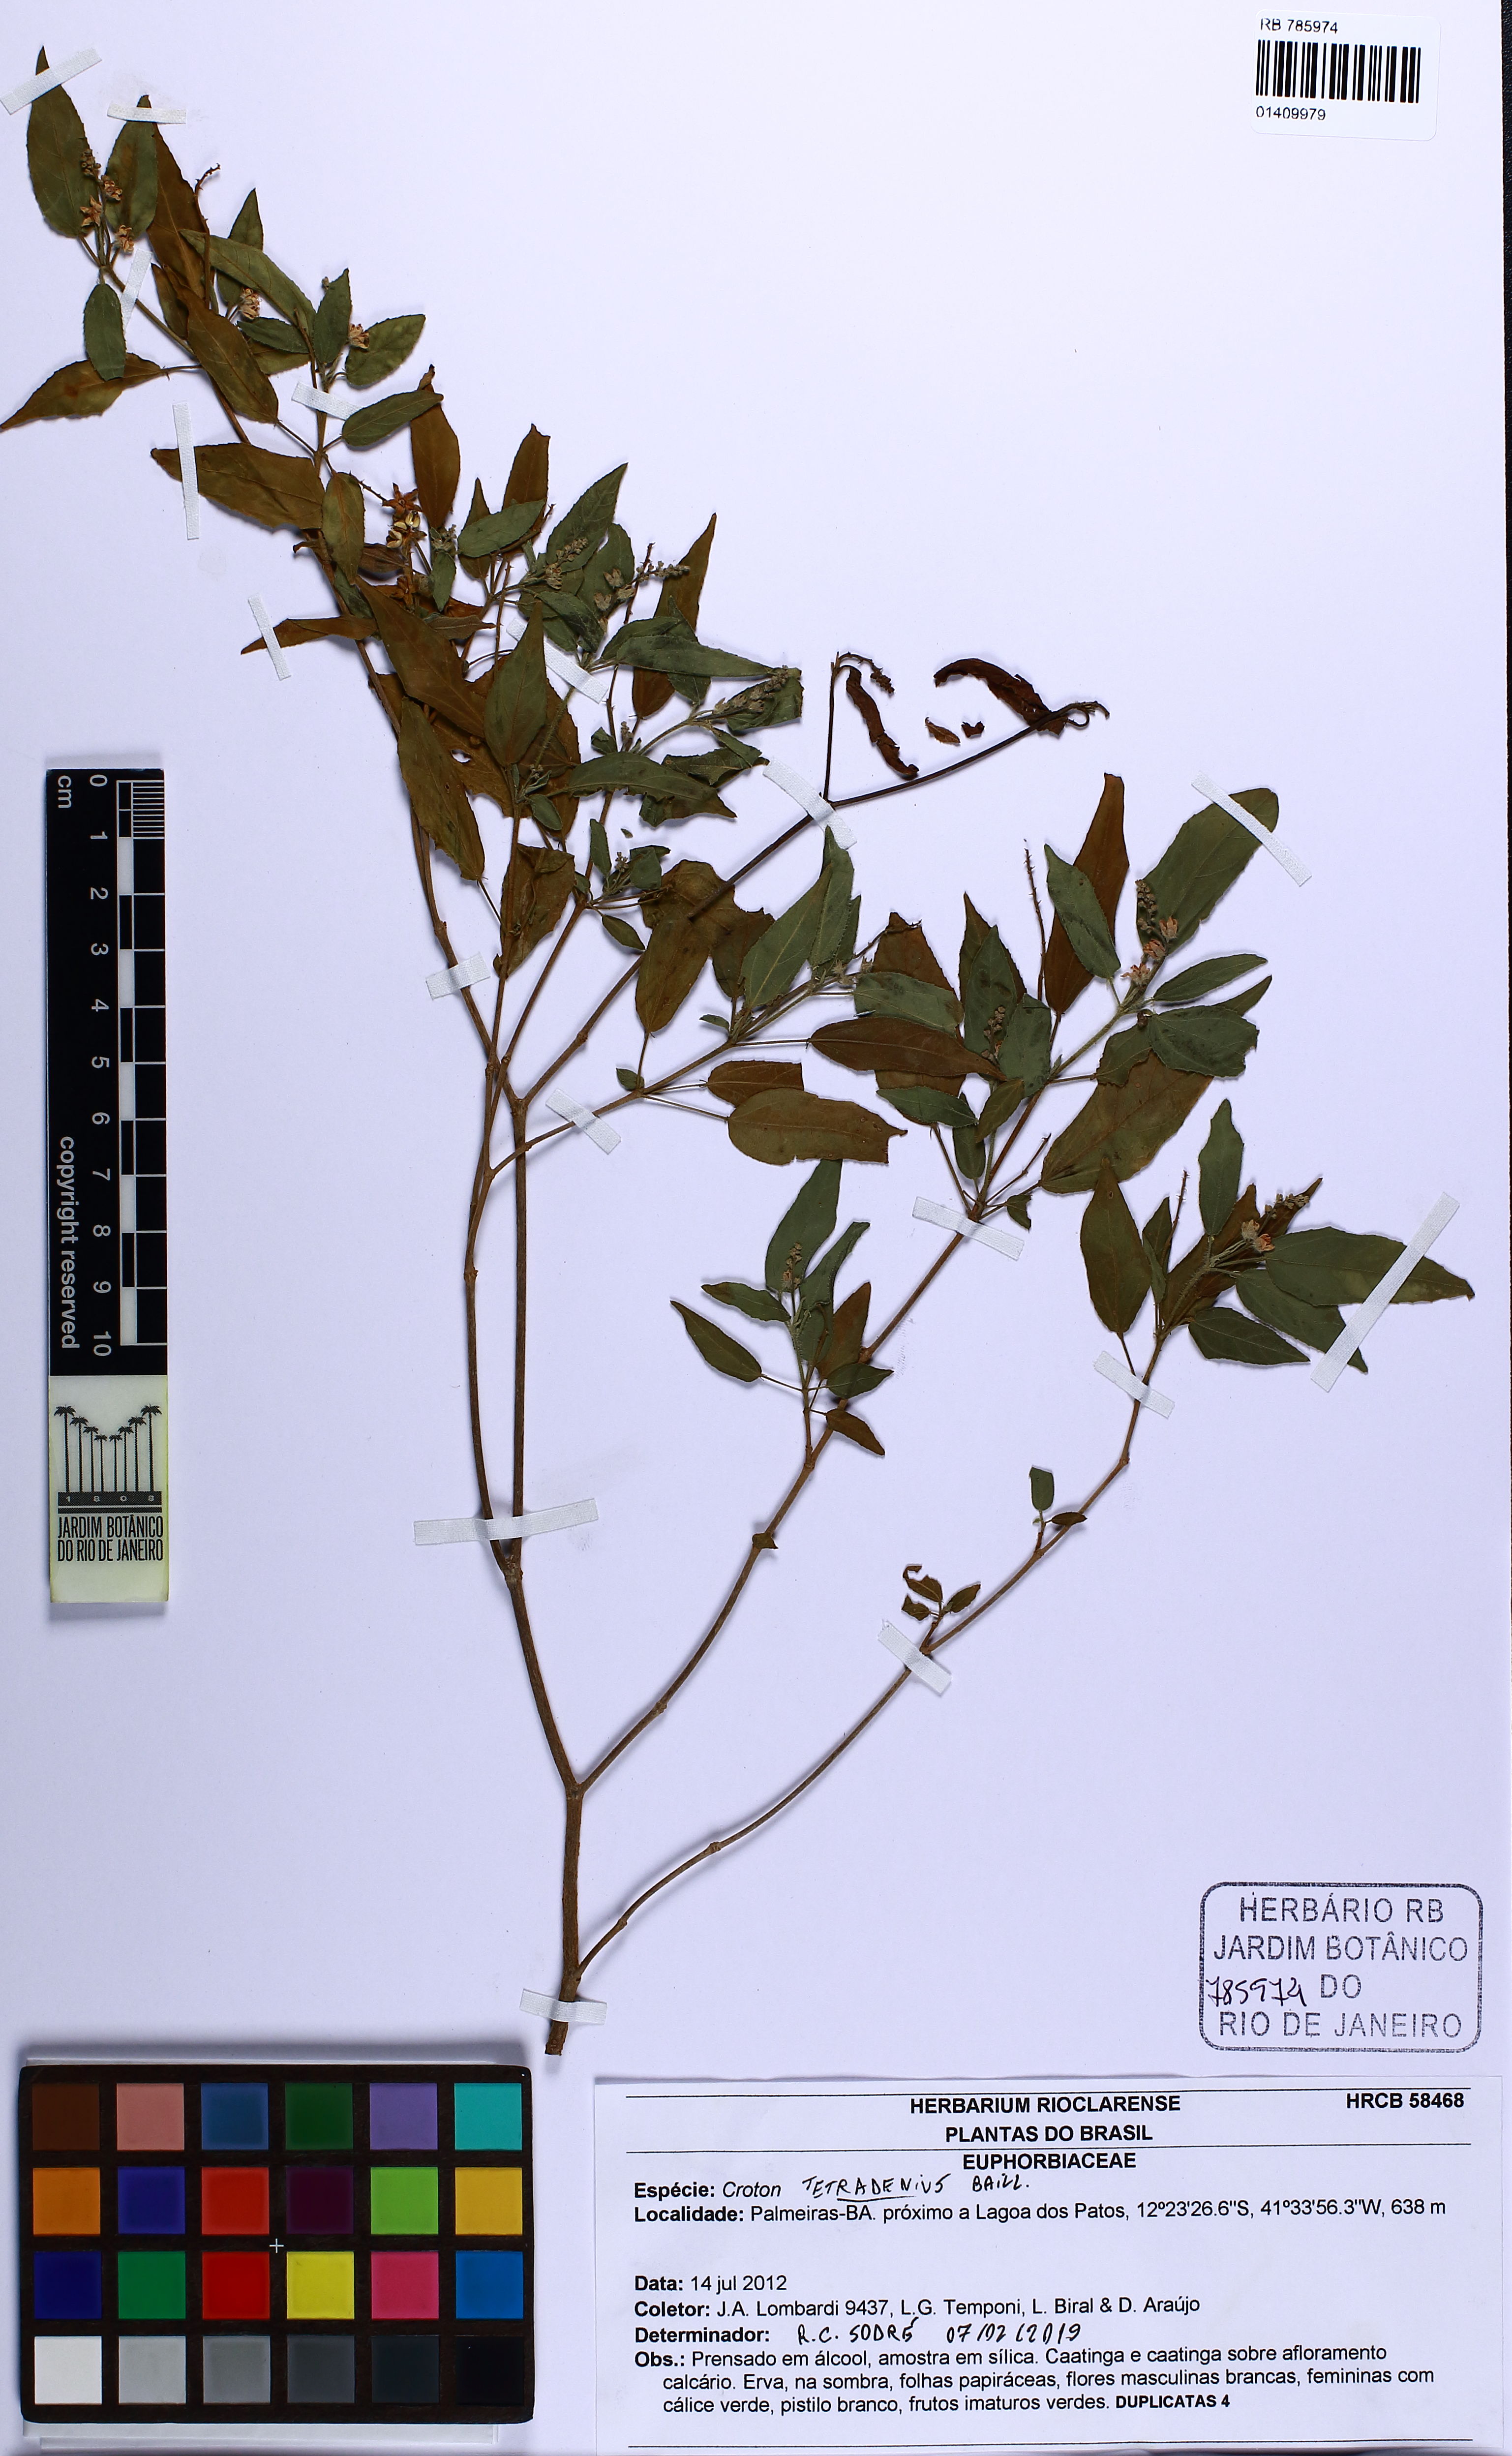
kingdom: Plantae
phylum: Tracheophyta
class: Magnoliopsida
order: Malpighiales
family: Euphorbiaceae
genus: Croton
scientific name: Croton tetradenius
